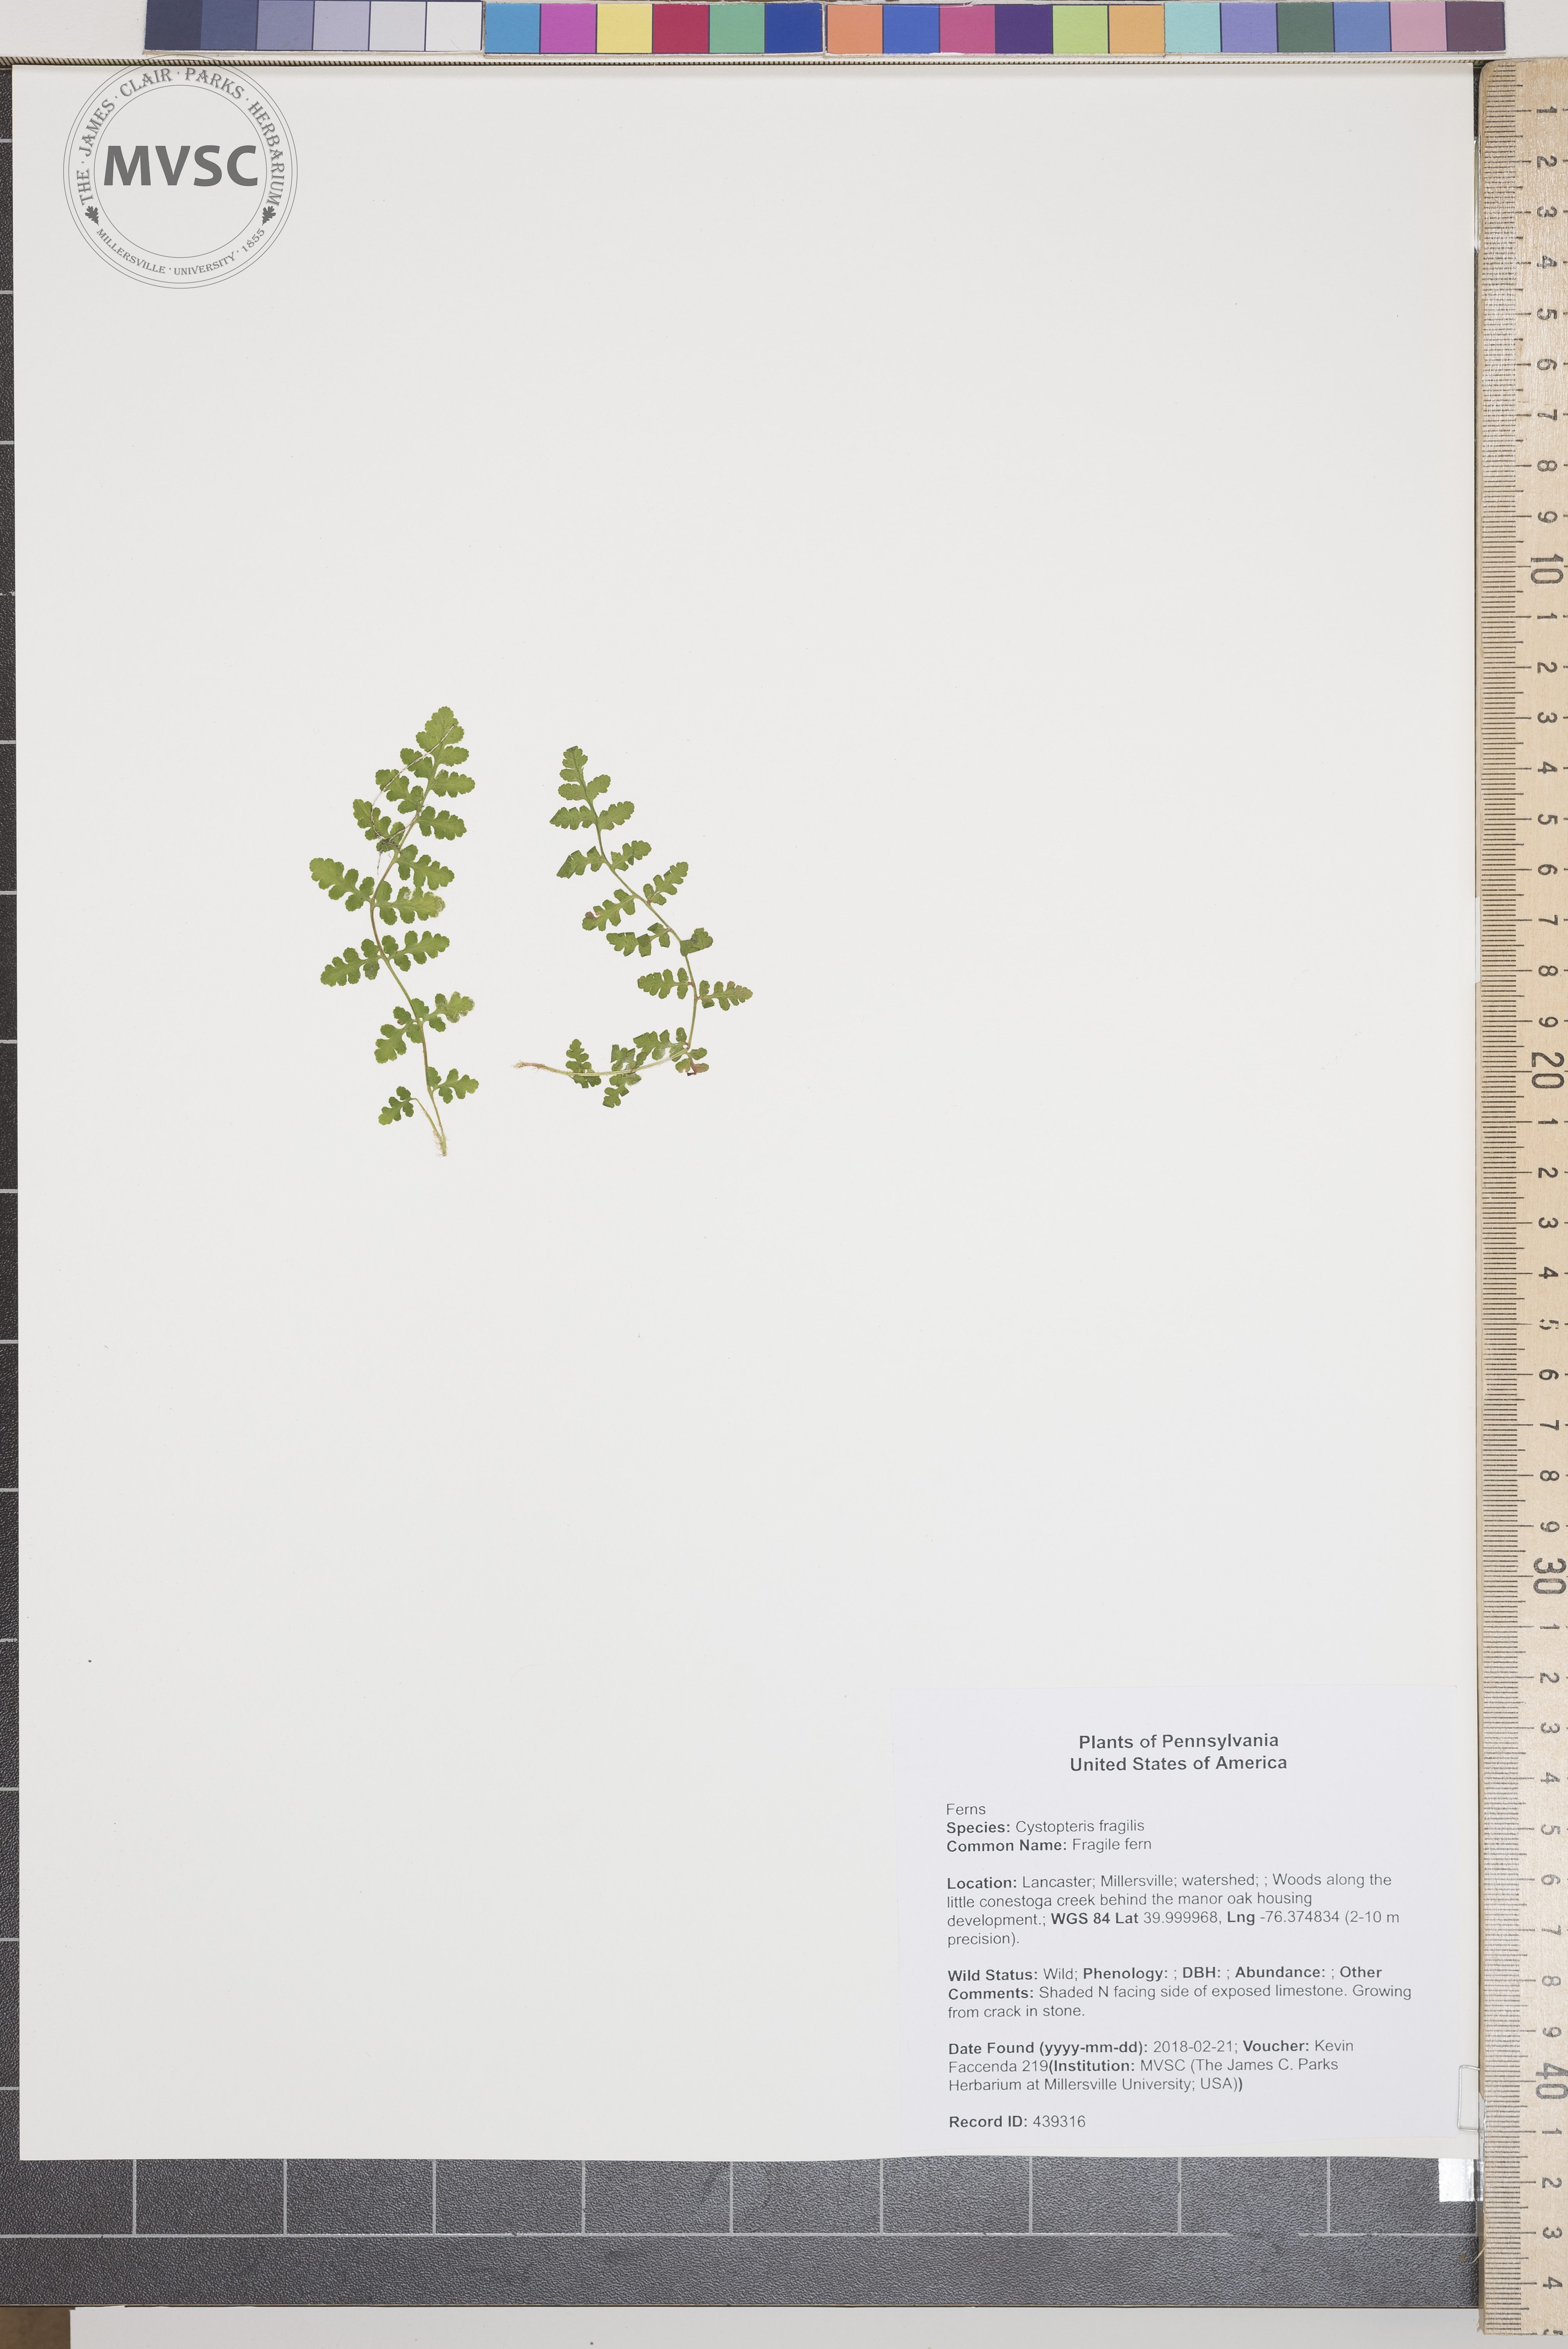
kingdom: Plantae
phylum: Tracheophyta
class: Polypodiopsida
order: Polypodiales
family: Cystopteridaceae
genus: Cystopteris
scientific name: Cystopteris tenuis
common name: Fragile fern
